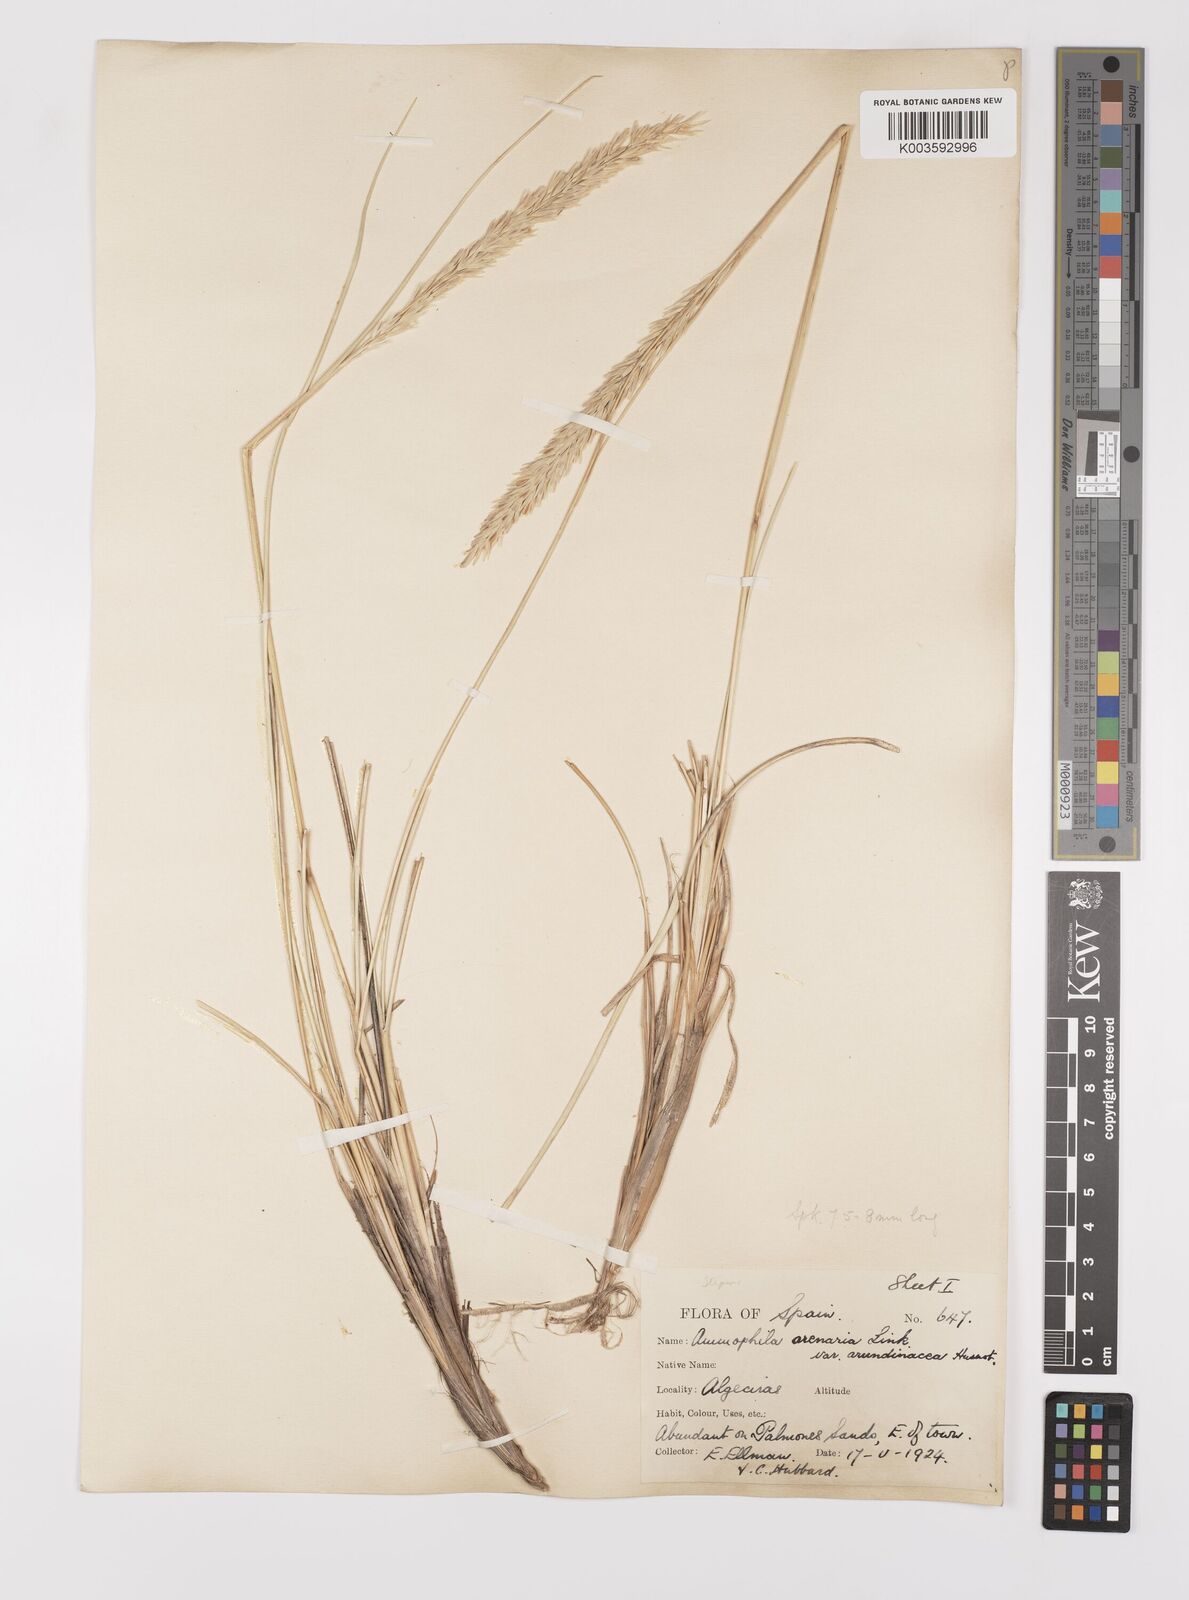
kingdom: Plantae
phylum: Tracheophyta
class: Liliopsida
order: Poales
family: Poaceae
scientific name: Poaceae
